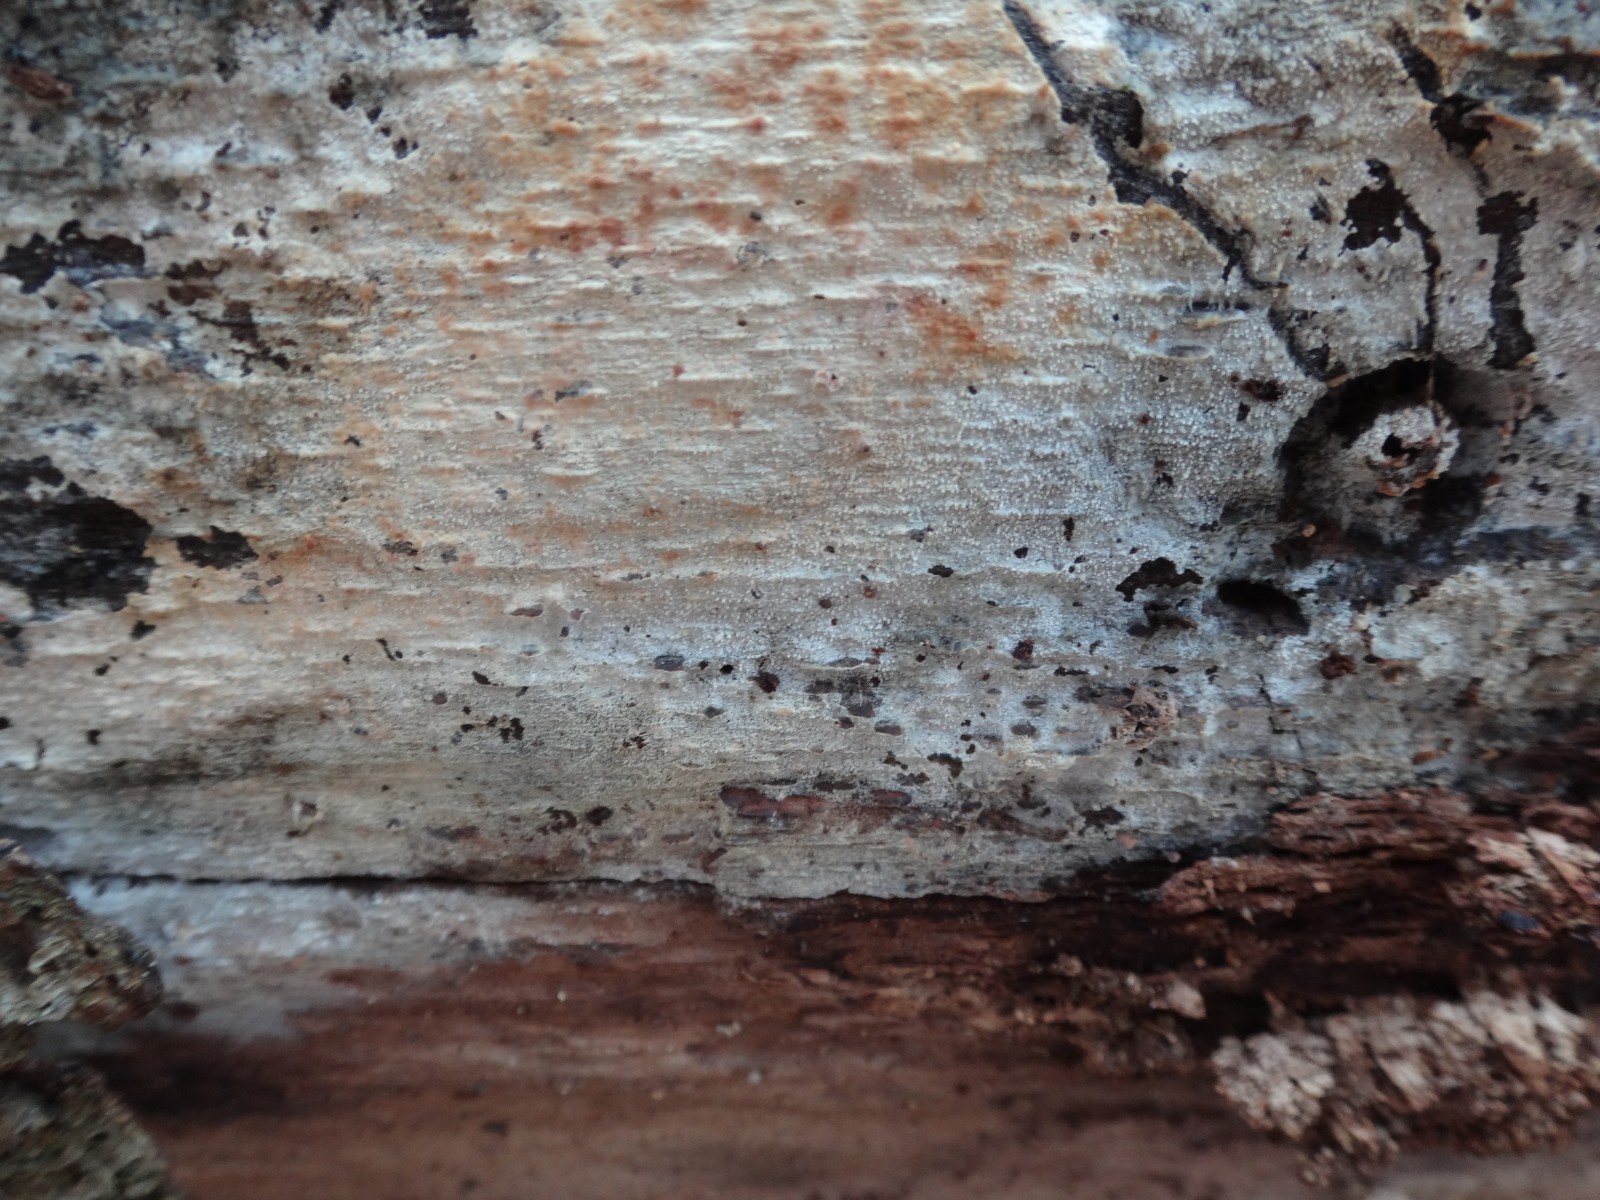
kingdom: Fungi
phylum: Basidiomycota
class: Agaricomycetes
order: Cantharellales
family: Hydnaceae
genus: Sistotrema
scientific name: Sistotrema brinkmannii
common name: bønnesporet kroneskorpe
